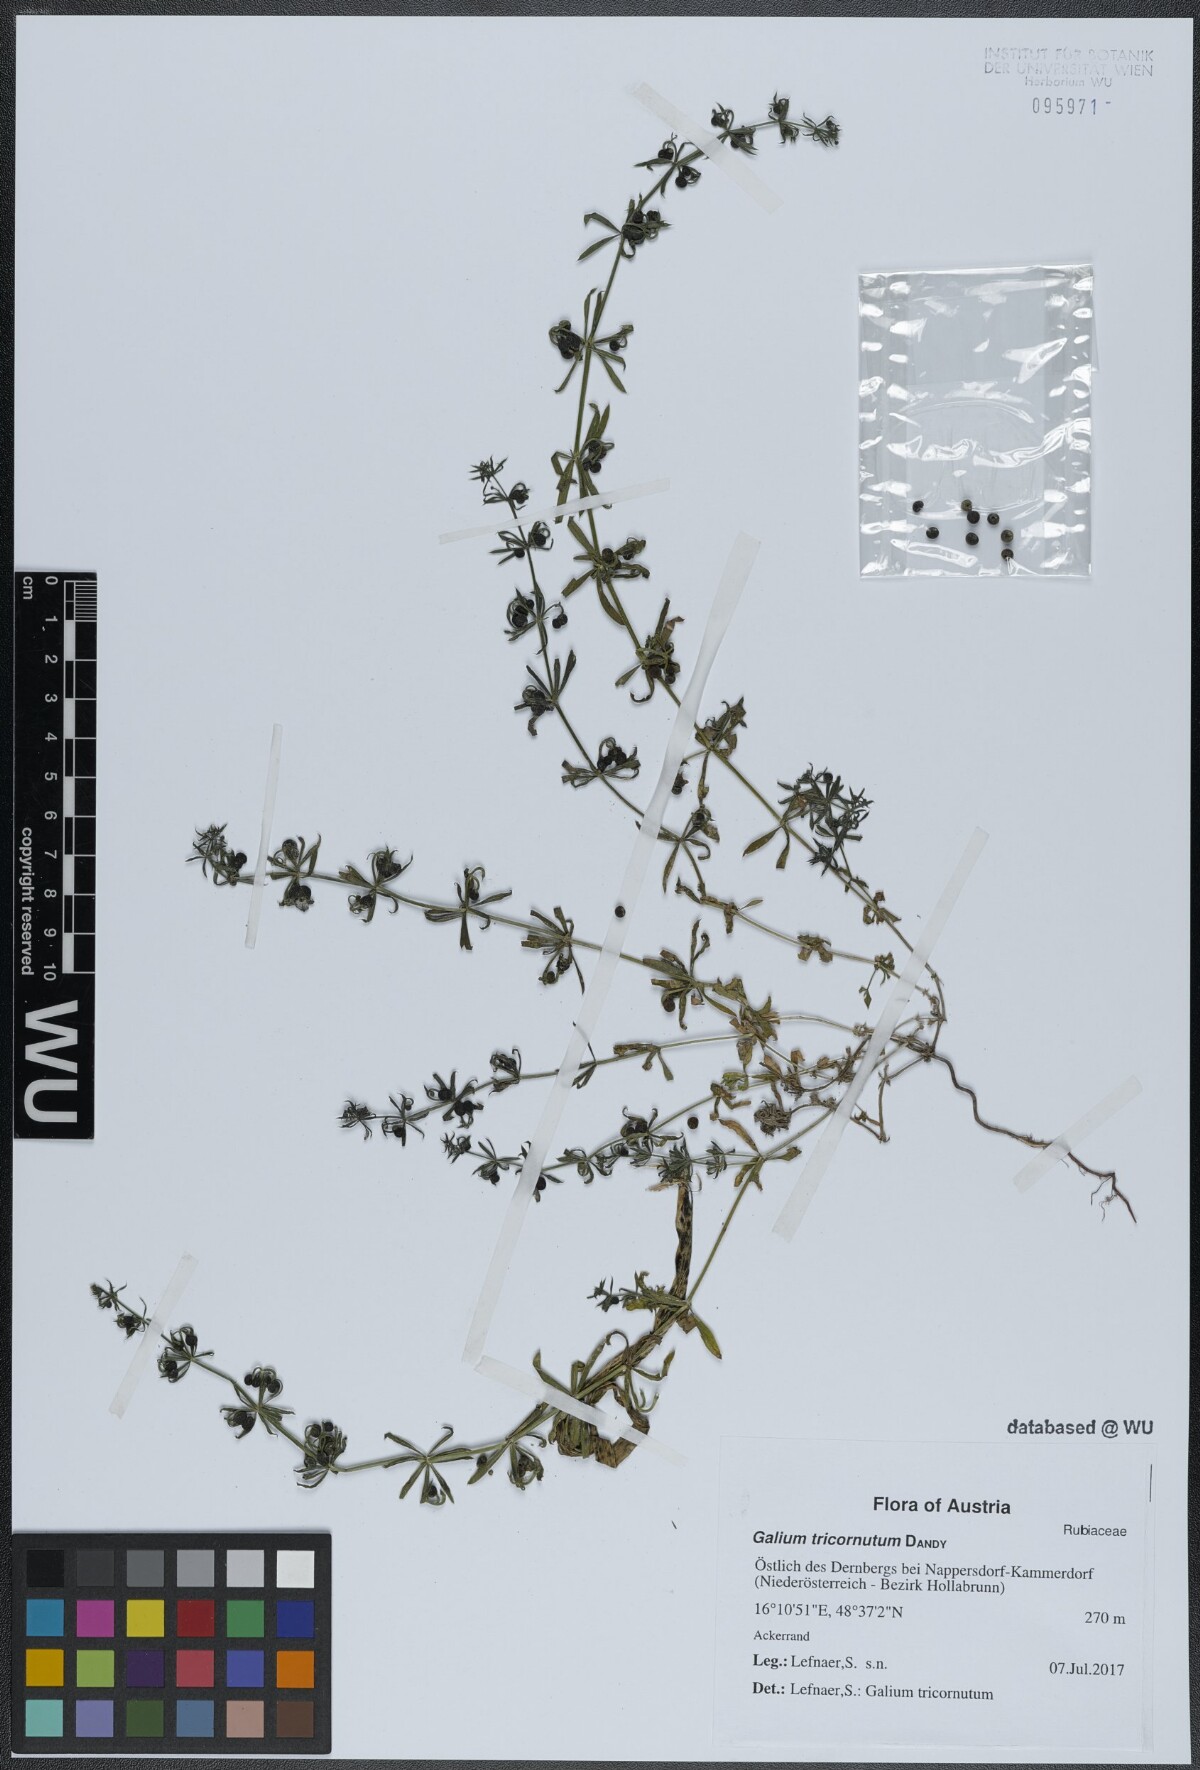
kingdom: Plantae
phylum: Tracheophyta
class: Magnoliopsida
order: Gentianales
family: Rubiaceae
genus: Galium
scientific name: Galium tricornutum
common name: Corn cleavers
